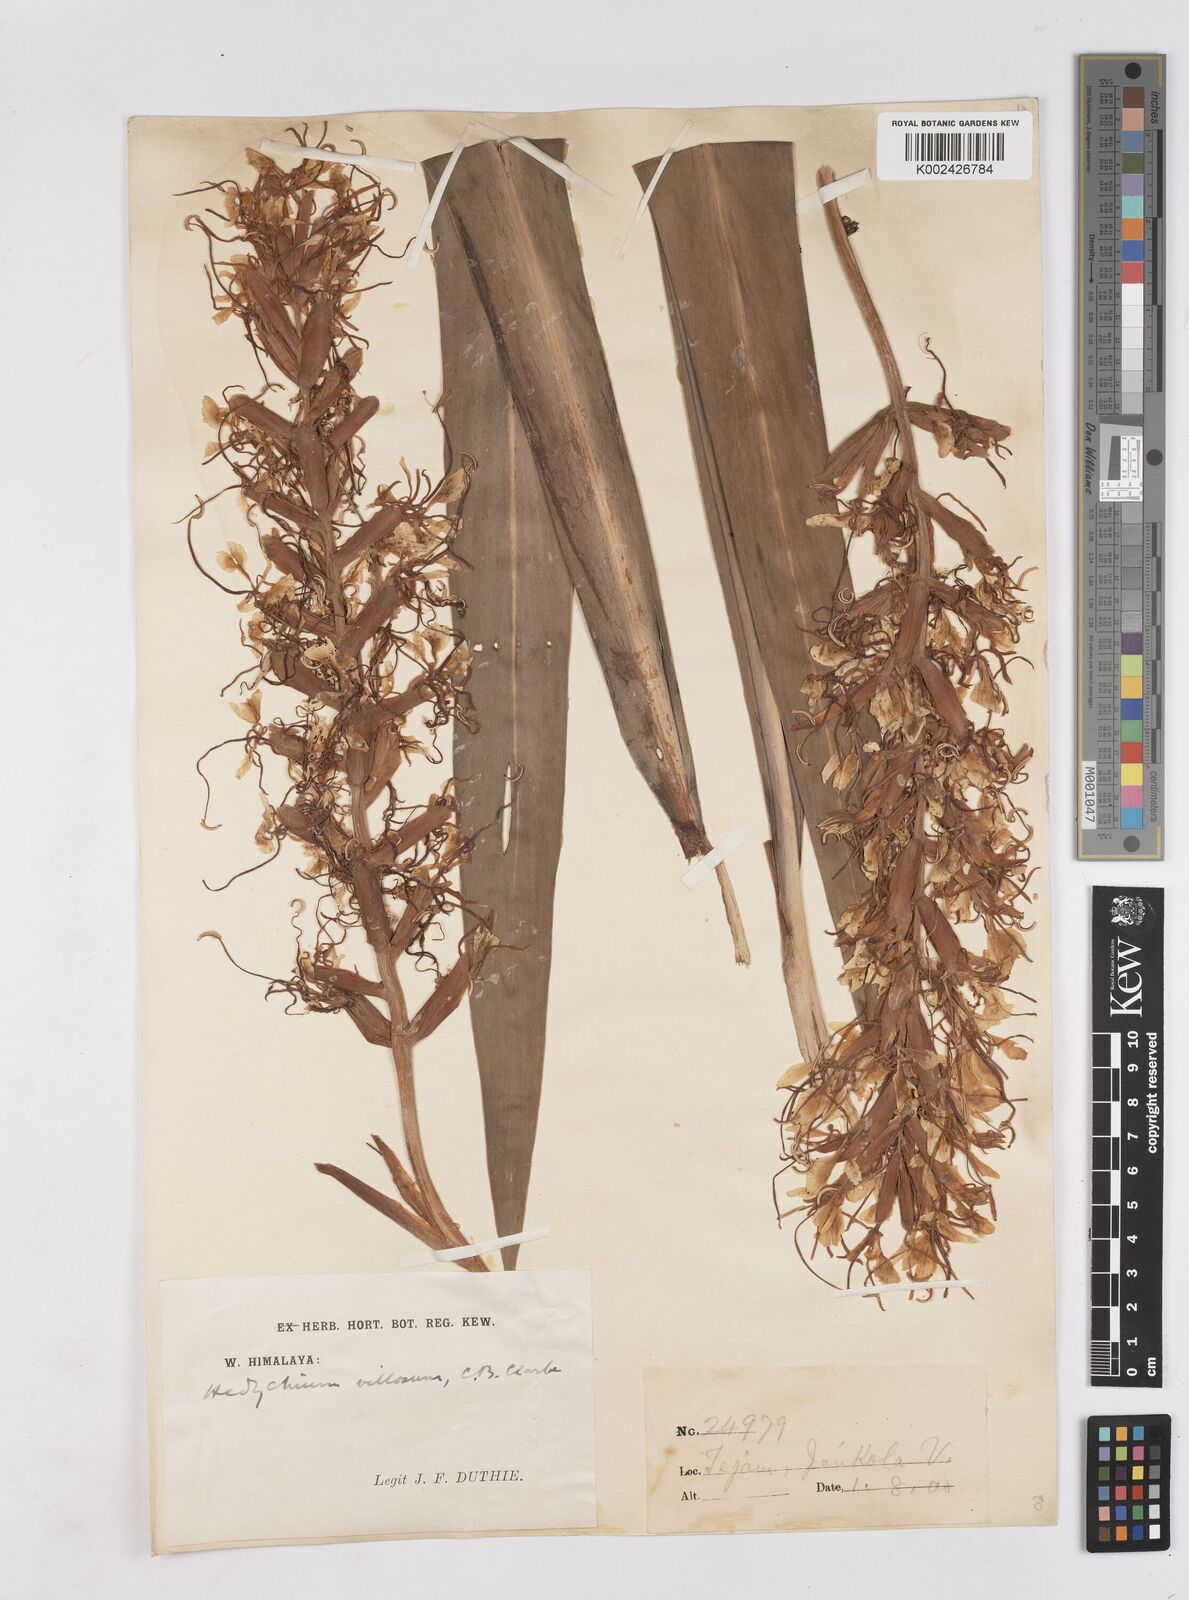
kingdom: Plantae
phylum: Tracheophyta
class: Liliopsida
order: Zingiberales
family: Zingiberaceae
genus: Hedychium
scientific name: Hedychium coccineum
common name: Red ginger-lily
